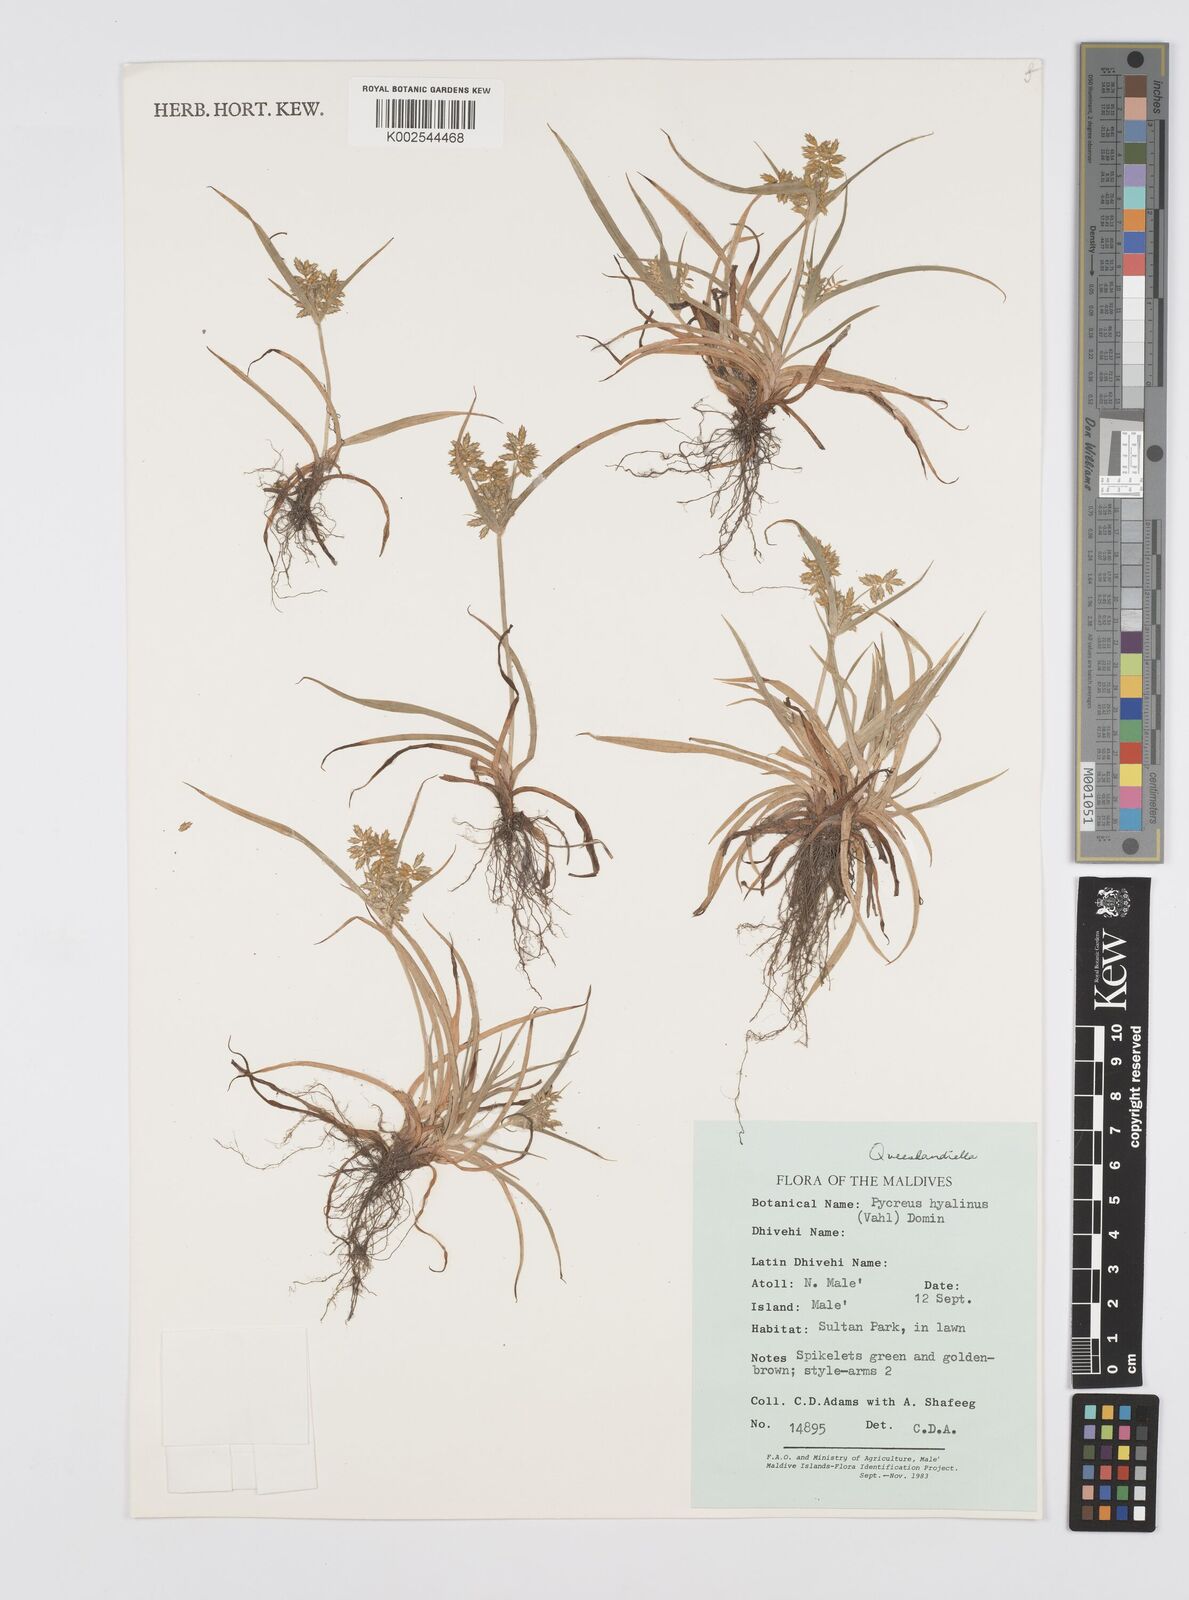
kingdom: Plantae
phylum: Tracheophyta
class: Liliopsida
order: Poales
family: Cyperaceae
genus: Cyperus
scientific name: Cyperus hyalinus
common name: Queensland sedge
